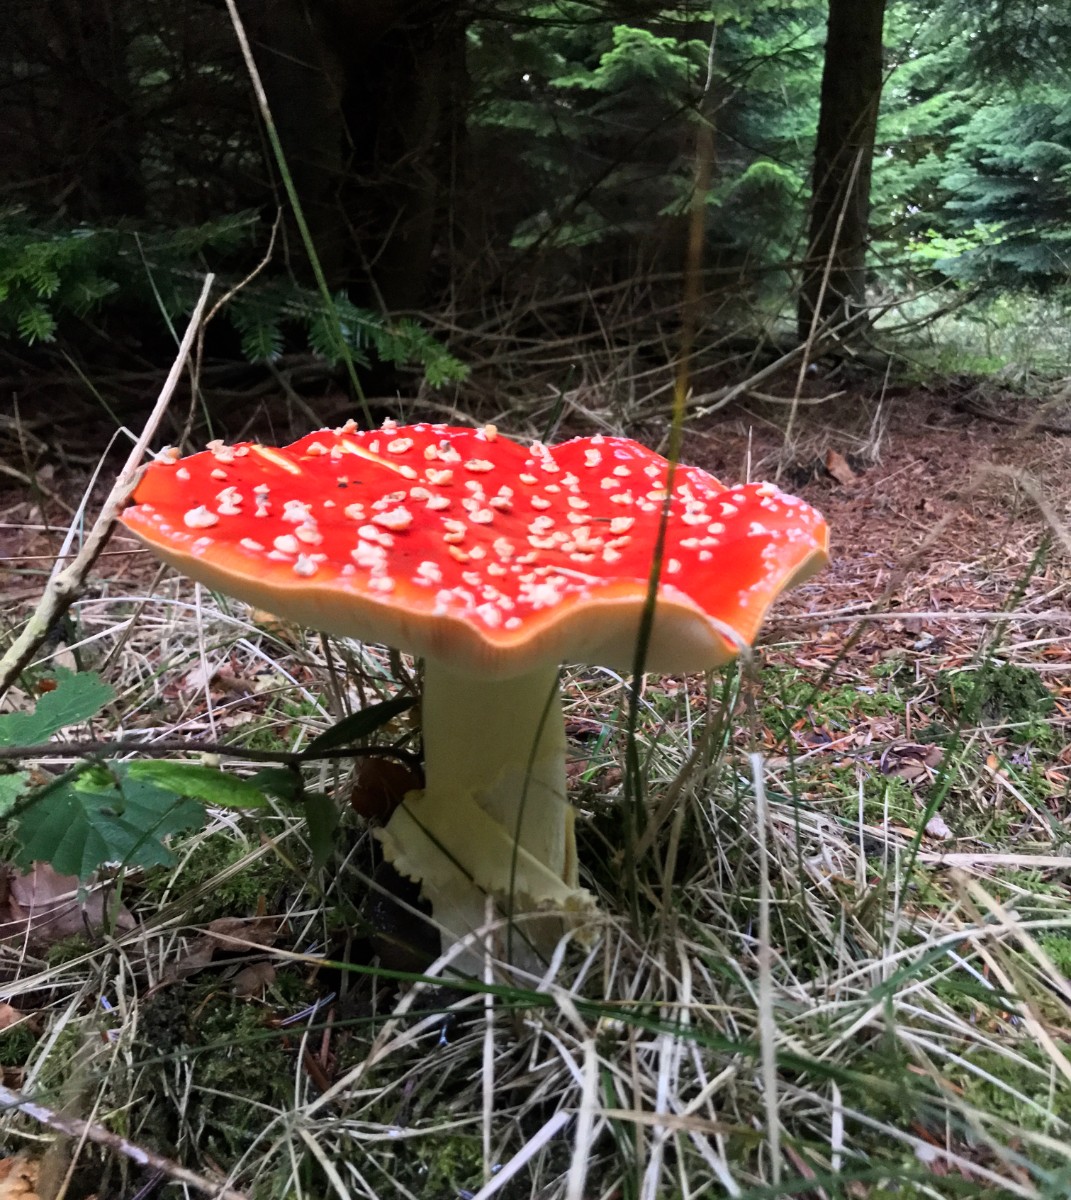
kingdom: Fungi
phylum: Basidiomycota
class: Agaricomycetes
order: Agaricales
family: Amanitaceae
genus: Amanita
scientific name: Amanita muscaria
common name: rød fluesvamp
